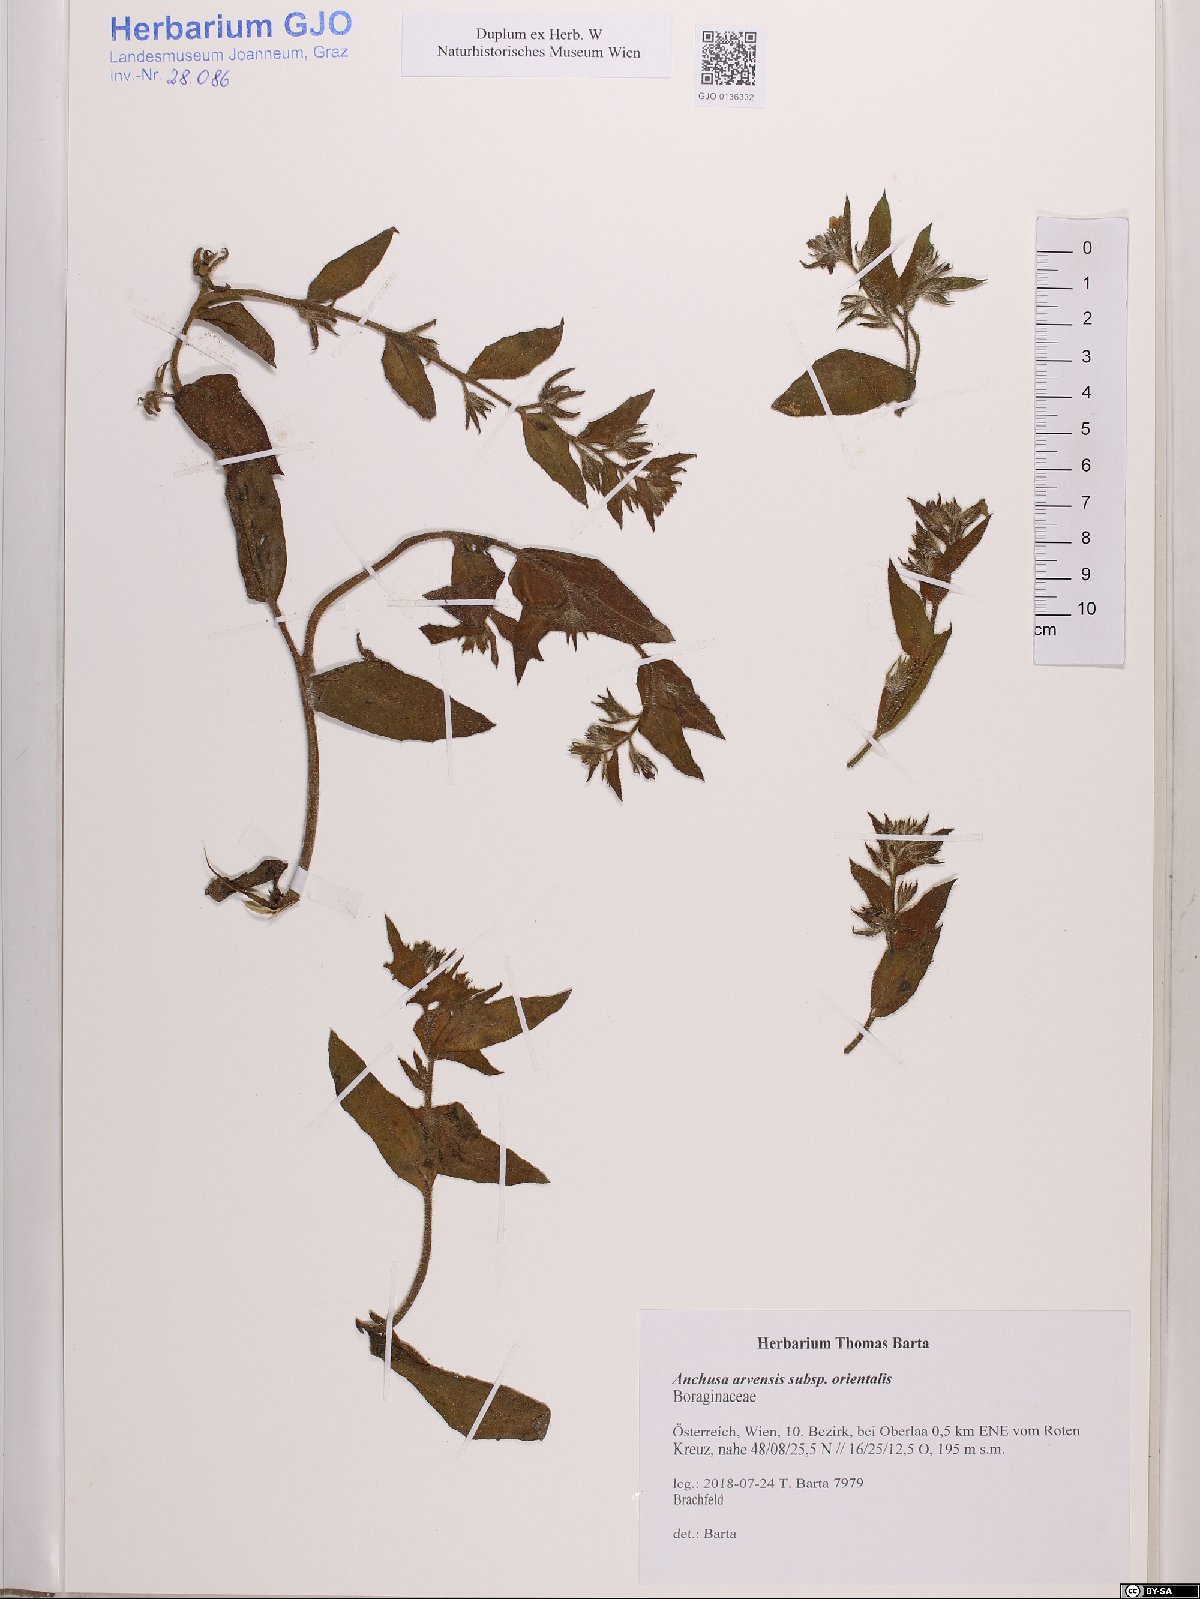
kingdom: Plantae
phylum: Tracheophyta
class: Magnoliopsida
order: Boraginales
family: Boraginaceae
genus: Lycopsis
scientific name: Lycopsis arvensis
